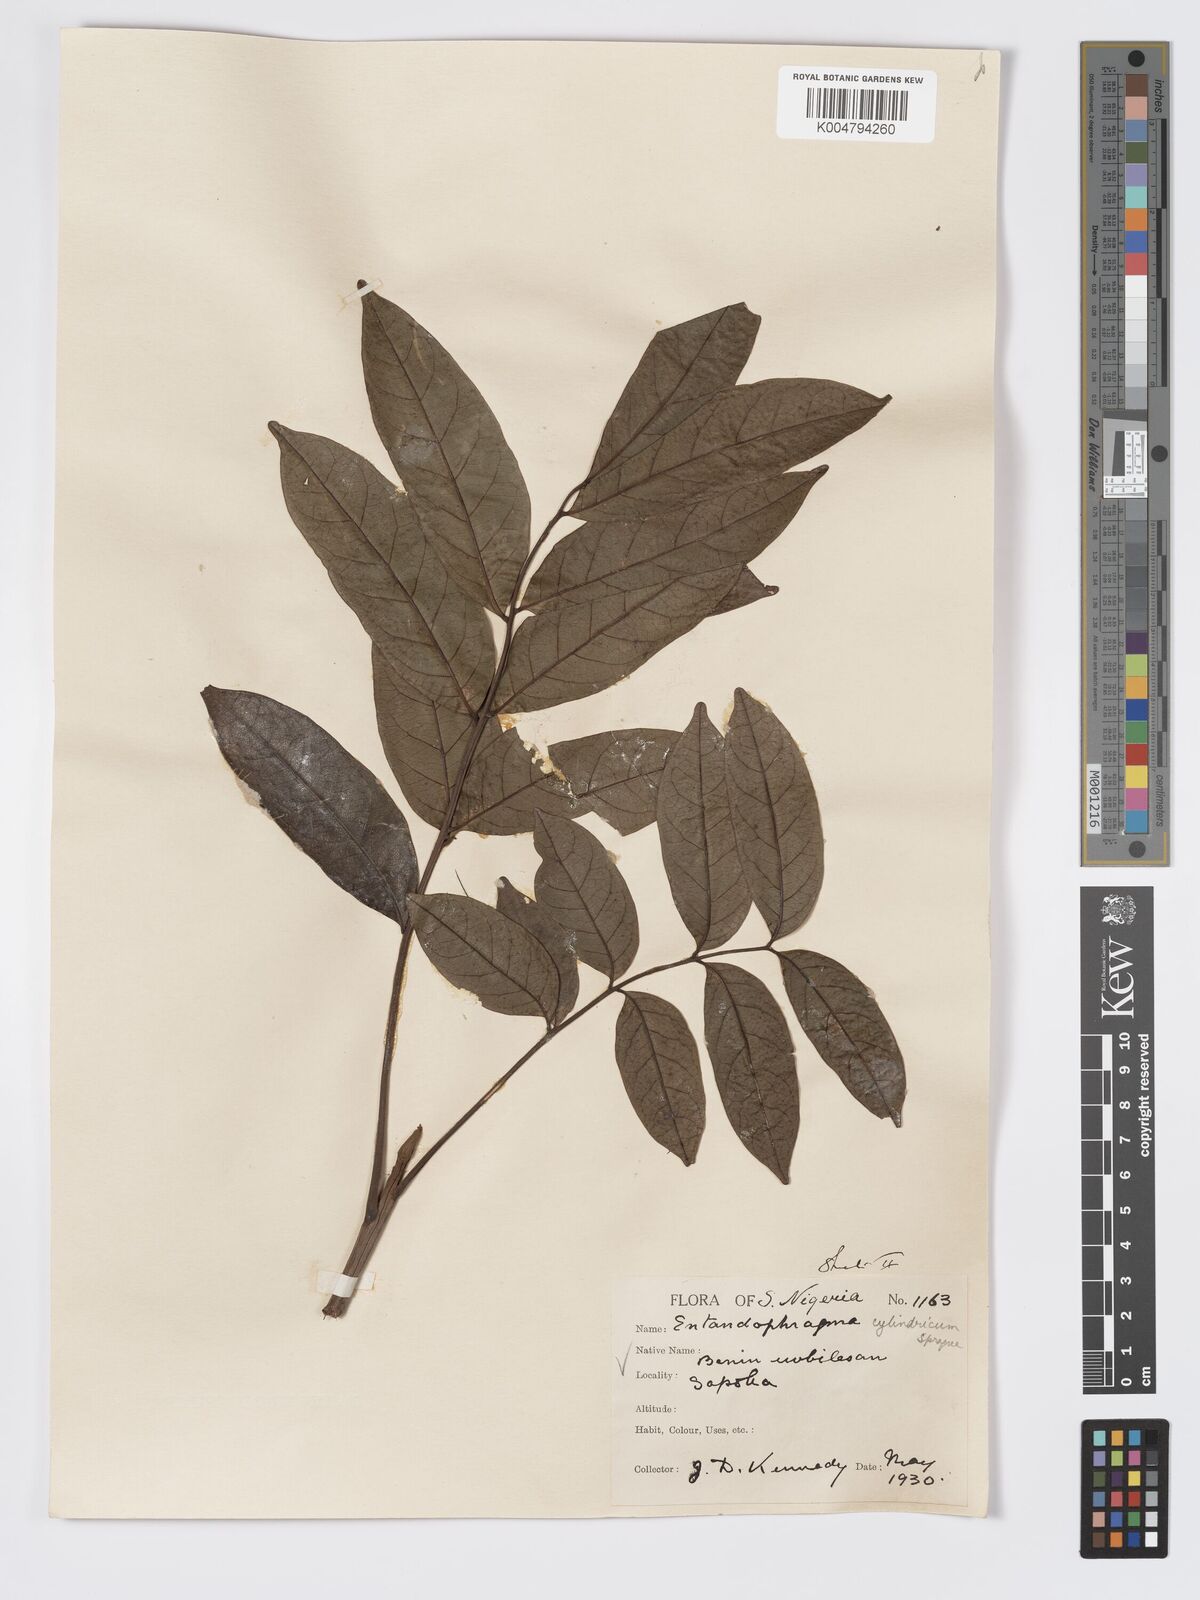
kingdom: Plantae
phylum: Tracheophyta
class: Magnoliopsida
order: Sapindales
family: Meliaceae
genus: Entandrophragma
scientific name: Entandrophragma cylindricum
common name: Sapele
